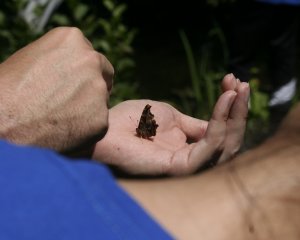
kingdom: Animalia
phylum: Arthropoda
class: Insecta
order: Lepidoptera
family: Nymphalidae
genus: Polygonia
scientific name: Polygonia comma
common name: Eastern Comma
